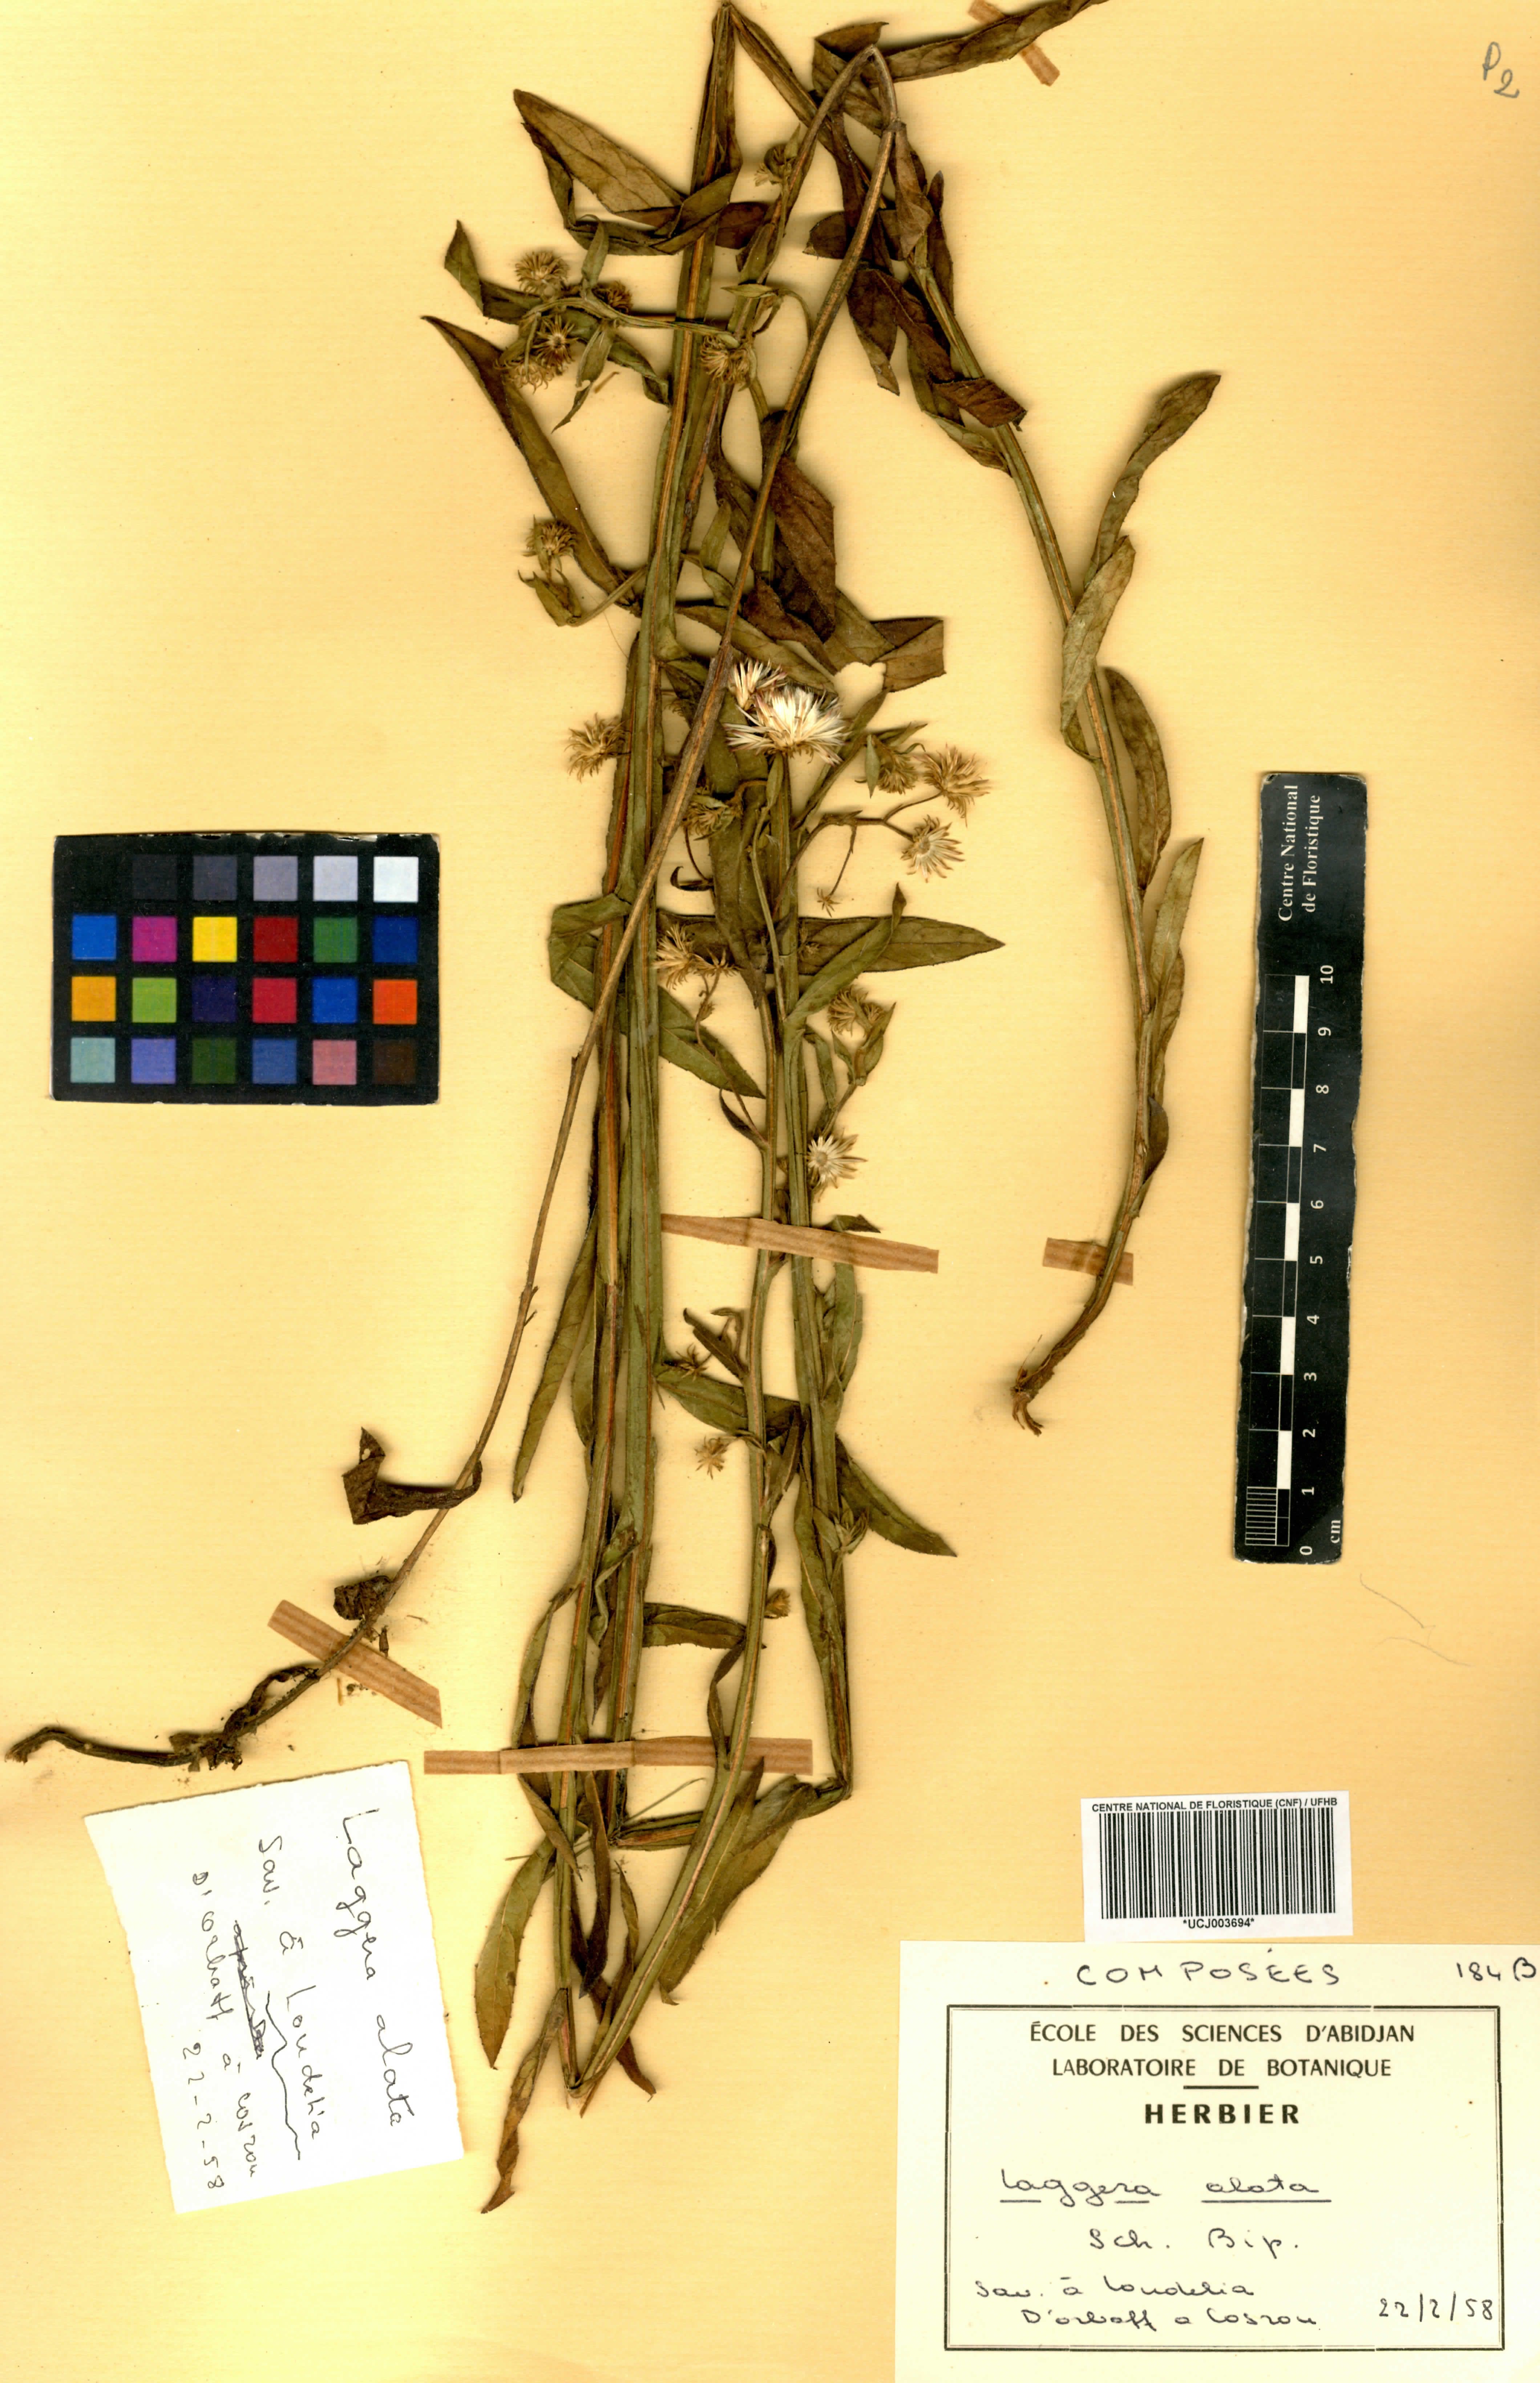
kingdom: Plantae
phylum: Tracheophyta
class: Magnoliopsida
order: Asterales
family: Asteraceae
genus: Laggera
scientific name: Laggera alata
